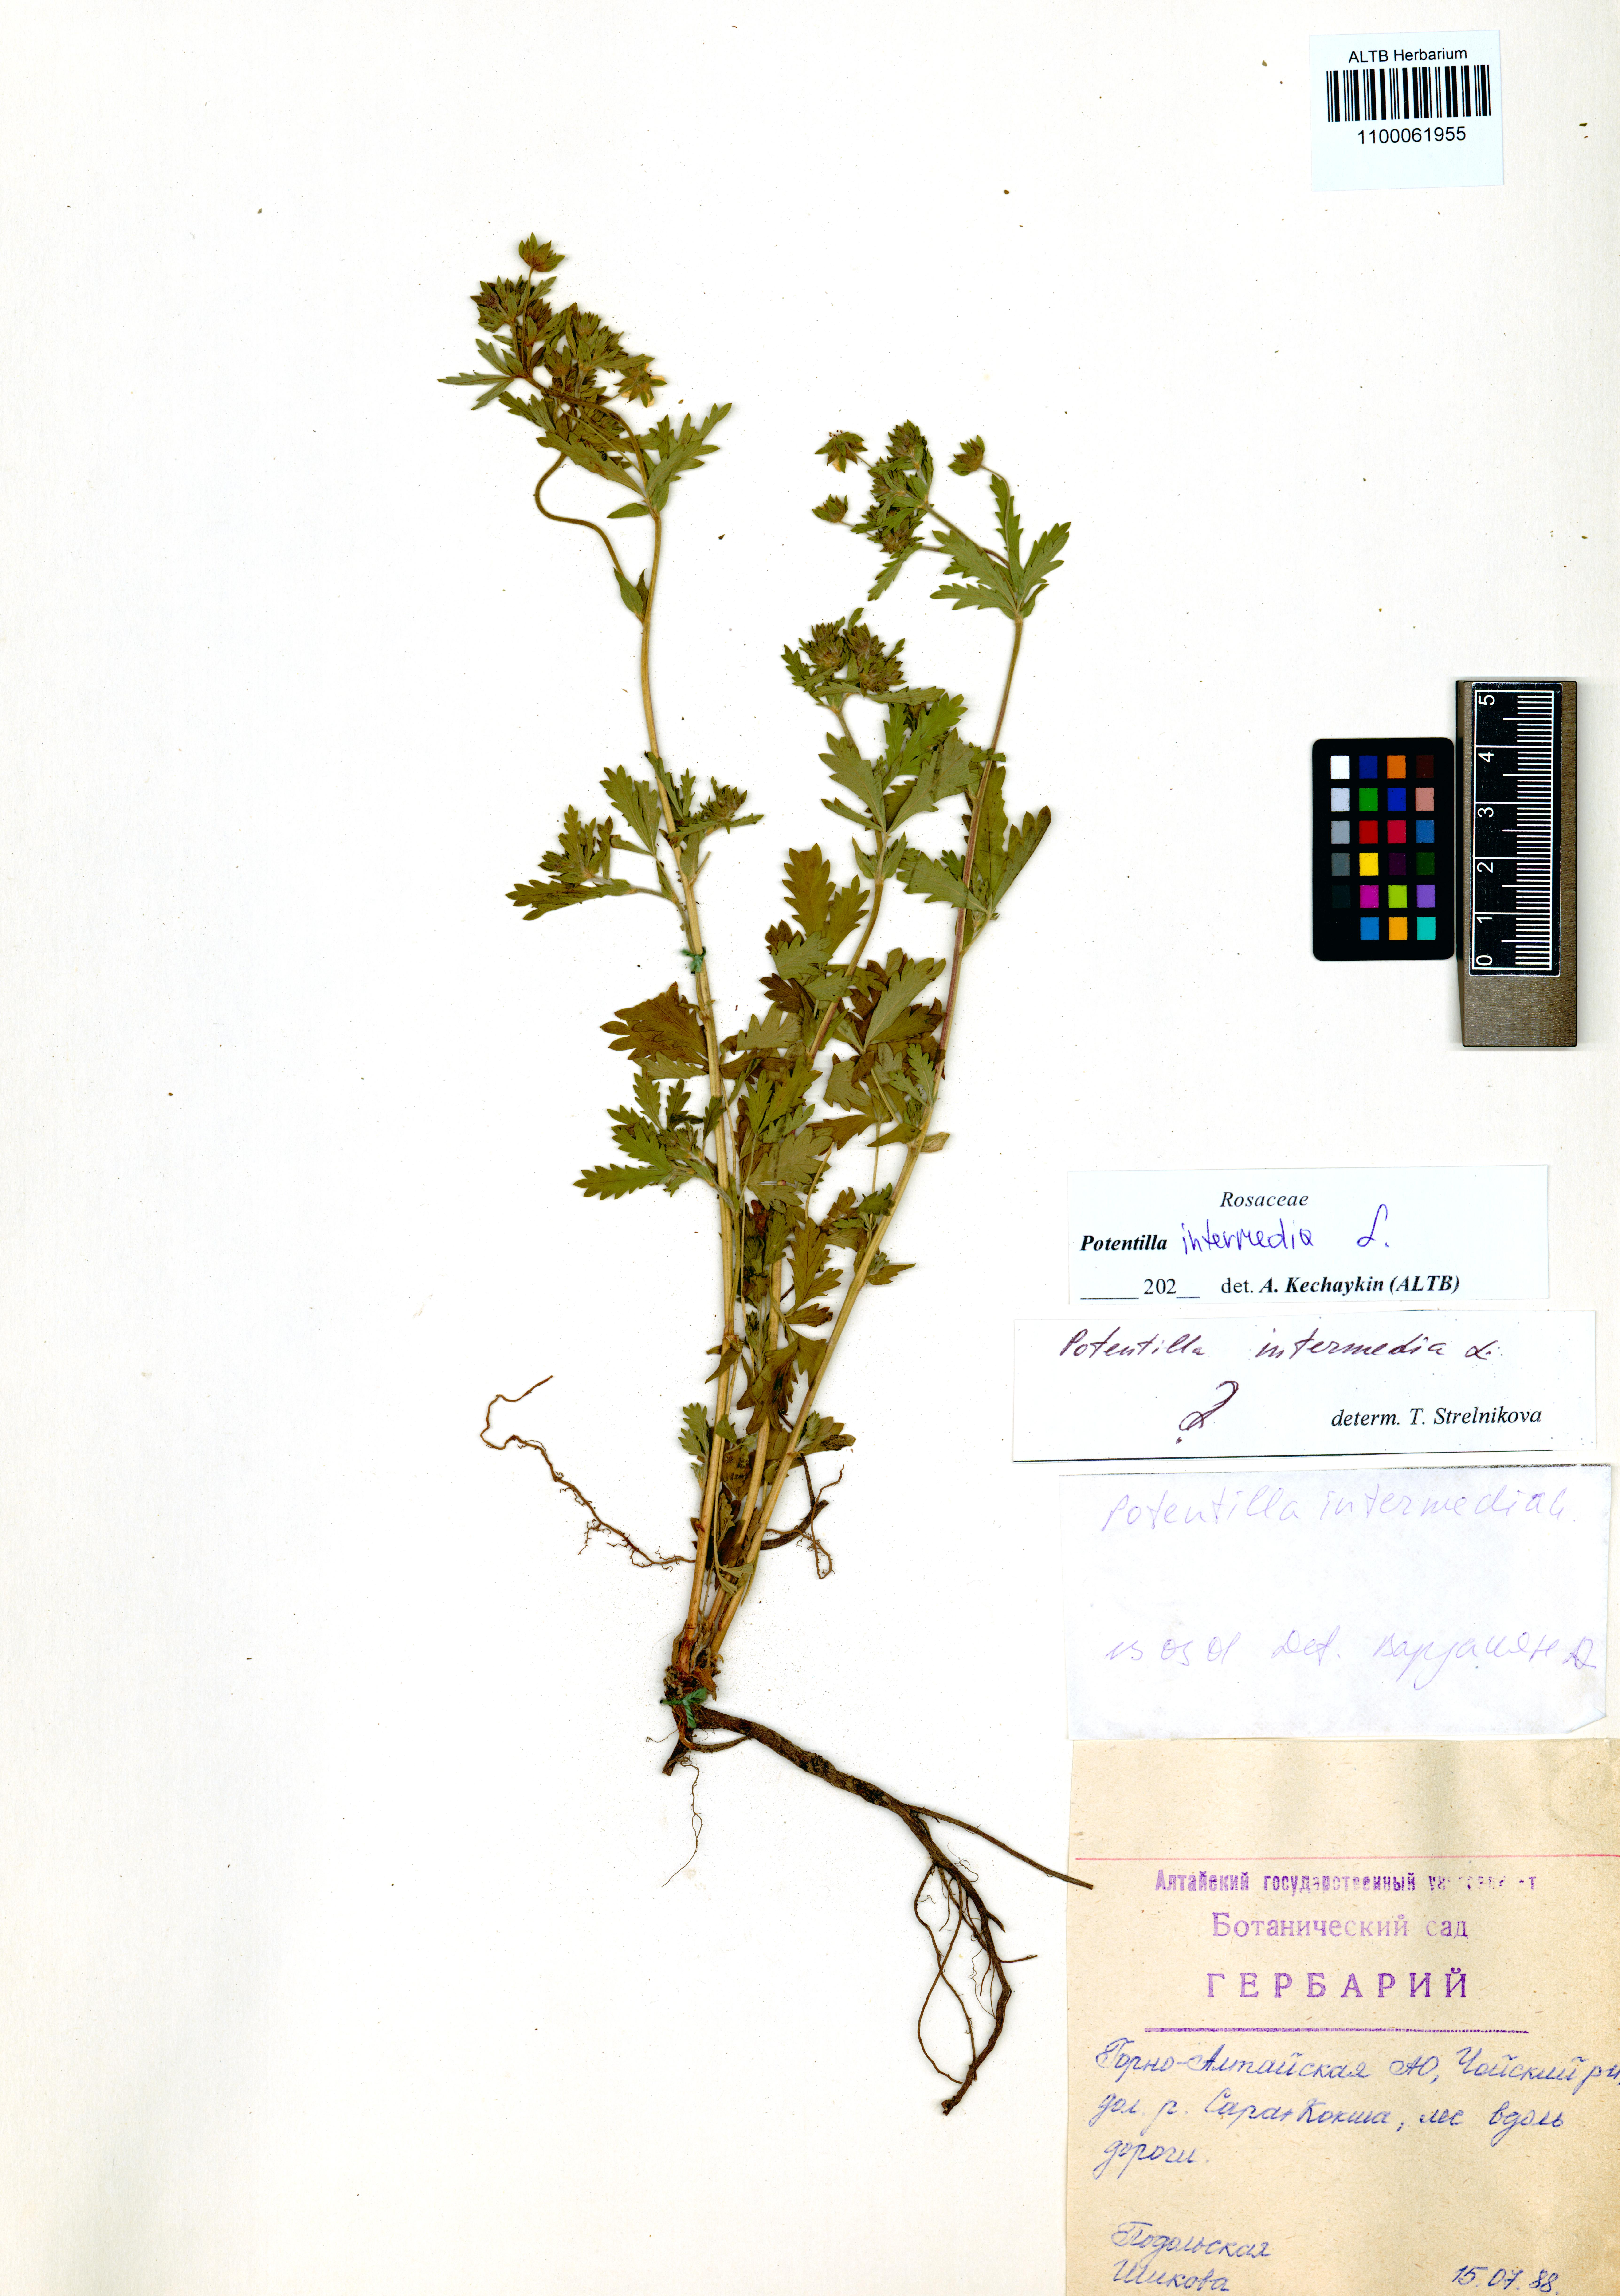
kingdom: Plantae
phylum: Tracheophyta
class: Magnoliopsida
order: Rosales
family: Rosaceae
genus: Potentilla
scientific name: Potentilla intermedia
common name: Downy cinquefoil
